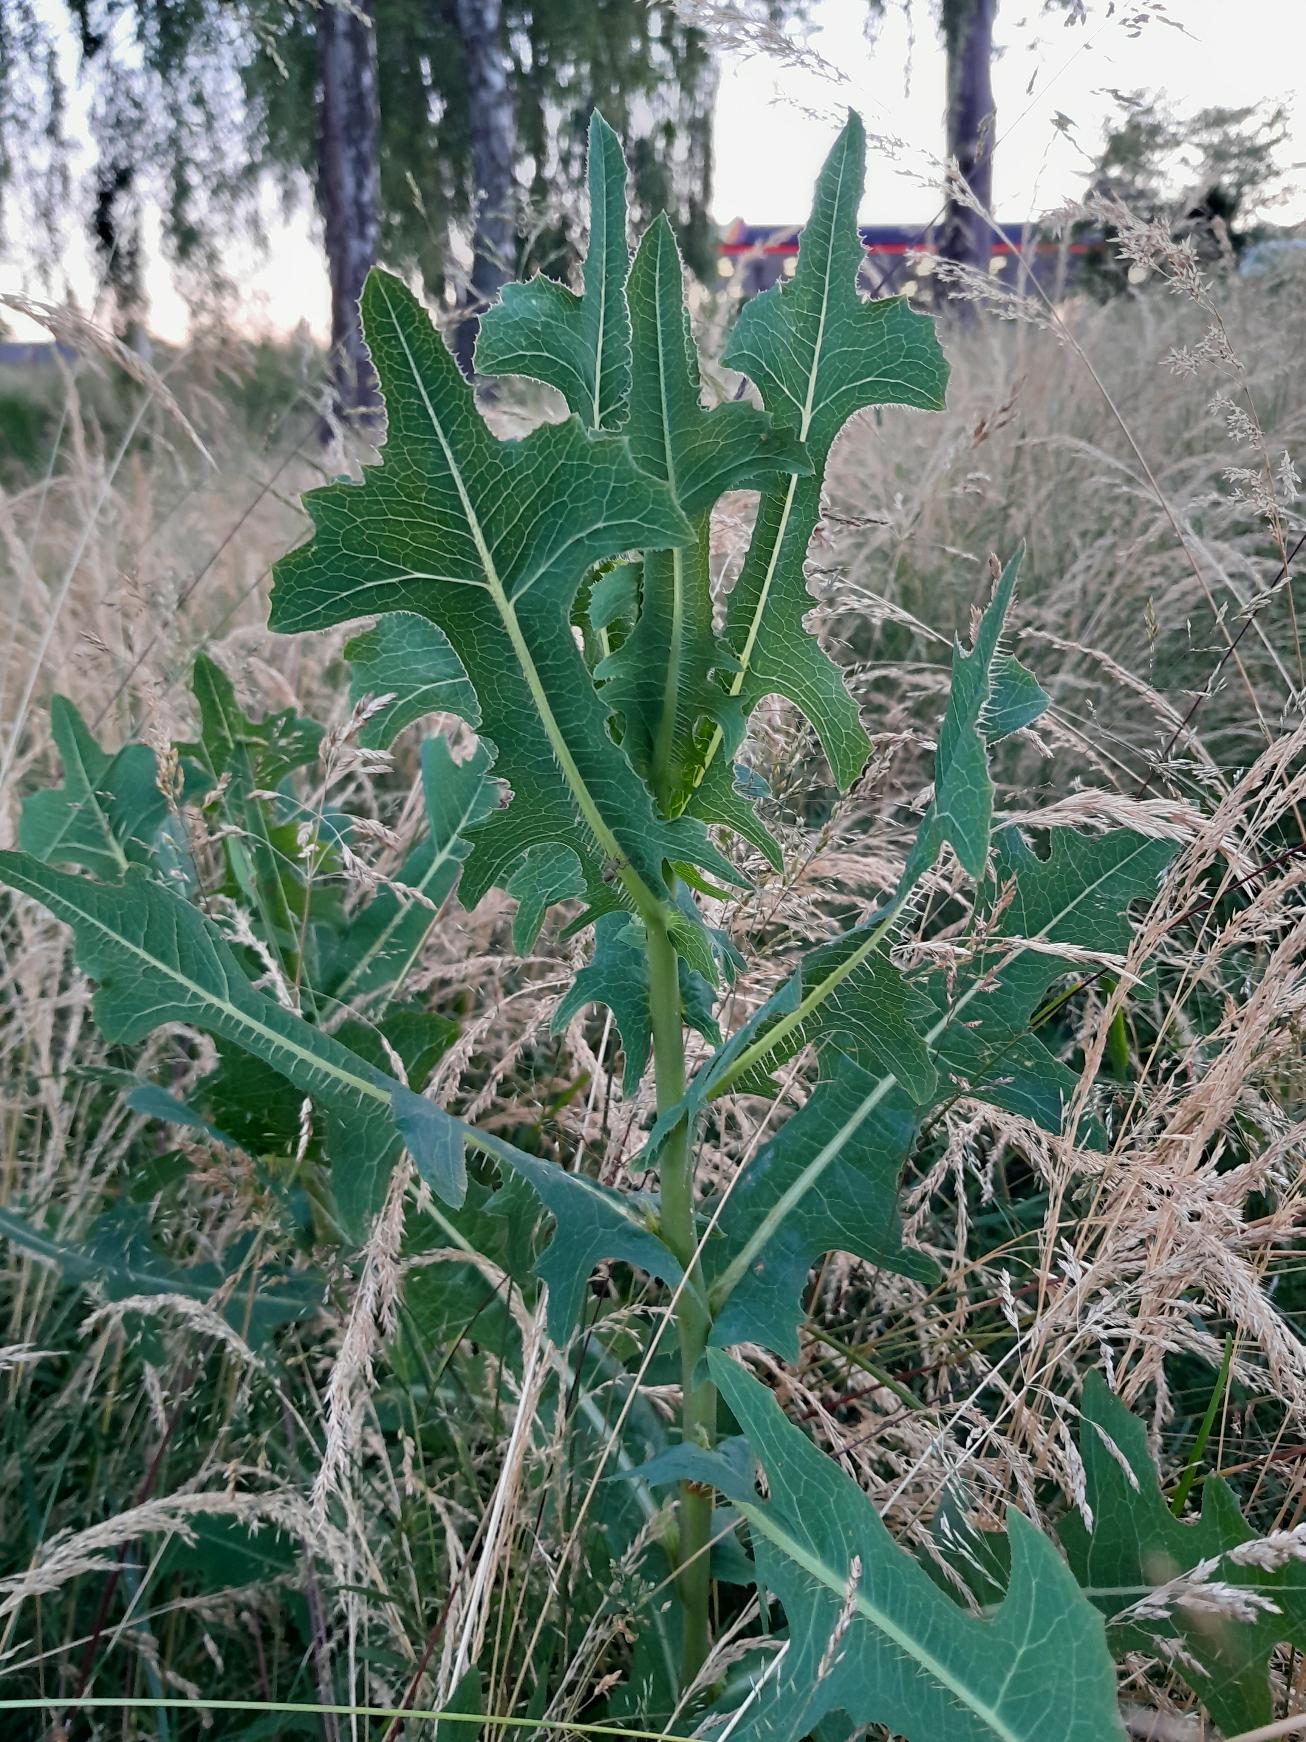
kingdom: Plantae
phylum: Tracheophyta
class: Magnoliopsida
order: Asterales
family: Asteraceae
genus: Lactuca
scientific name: Lactuca serriola
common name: Tornet salat
